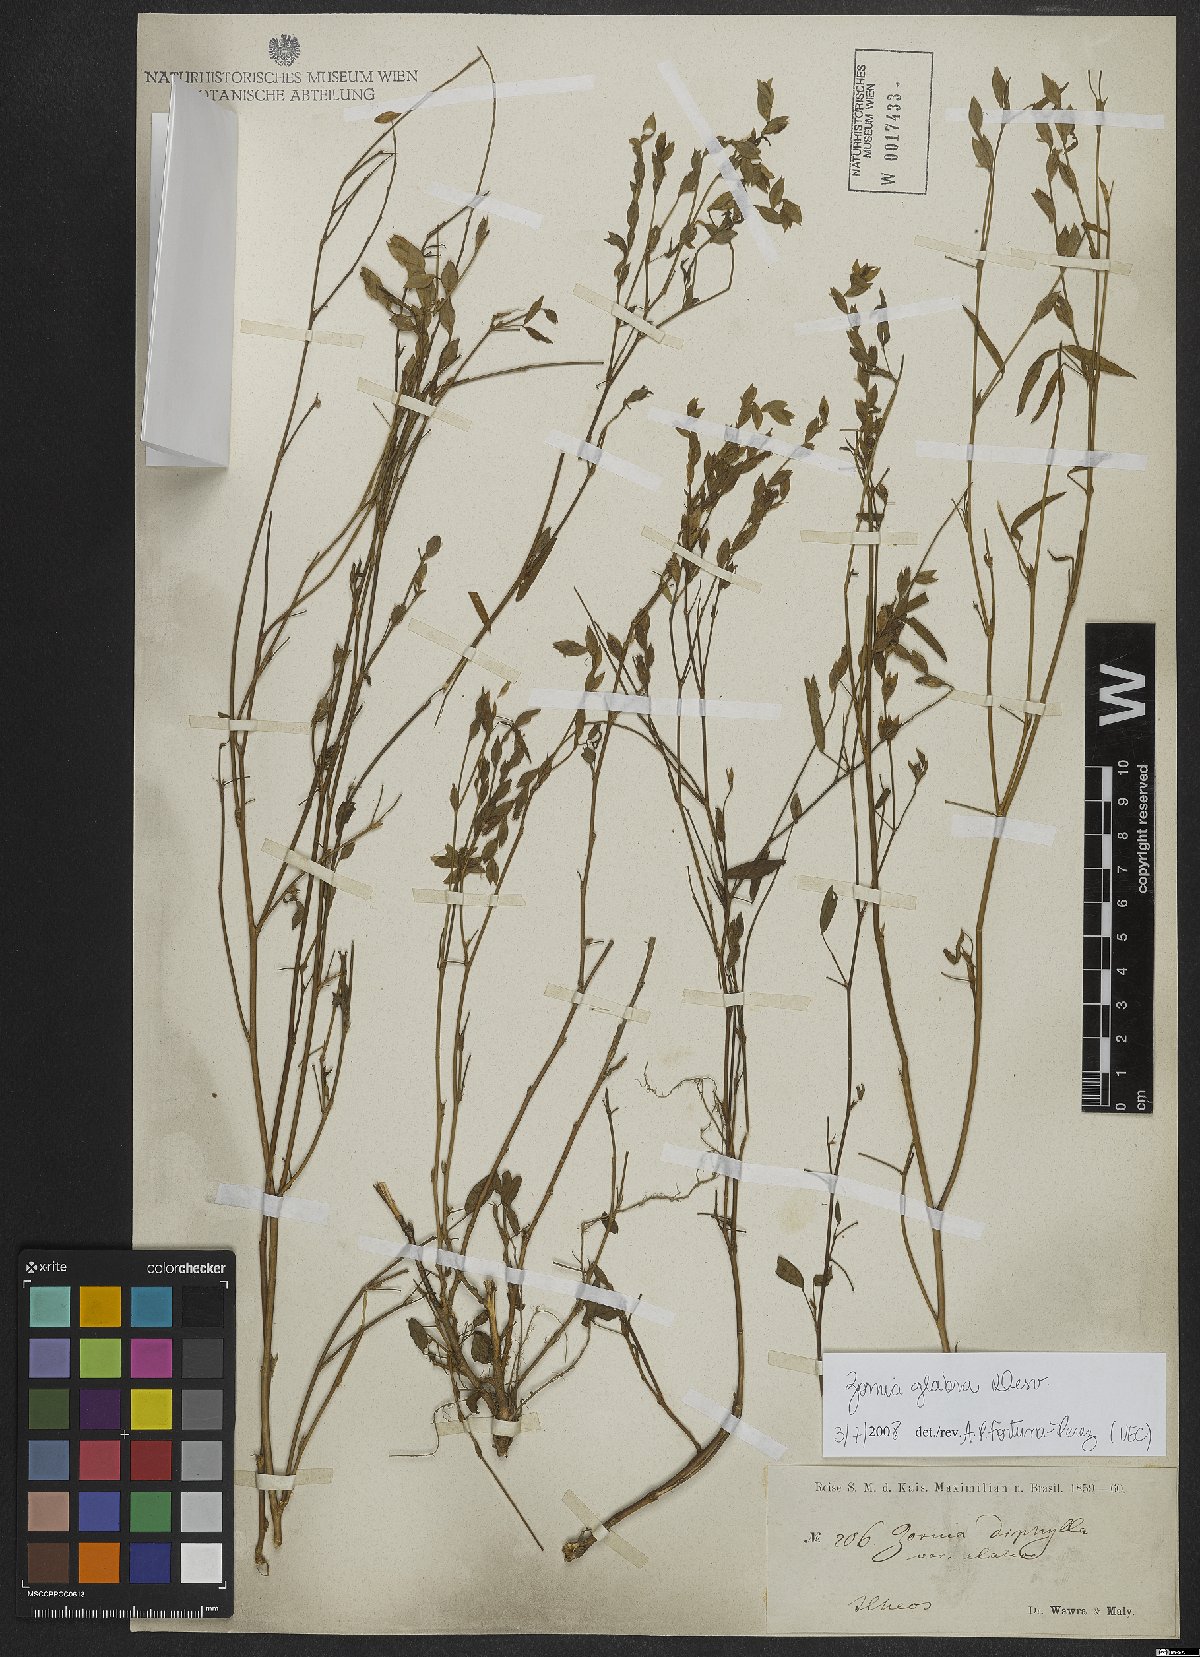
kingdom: Plantae
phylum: Tracheophyta
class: Magnoliopsida
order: Fabales
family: Fabaceae
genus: Zornia
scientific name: Zornia glabra
